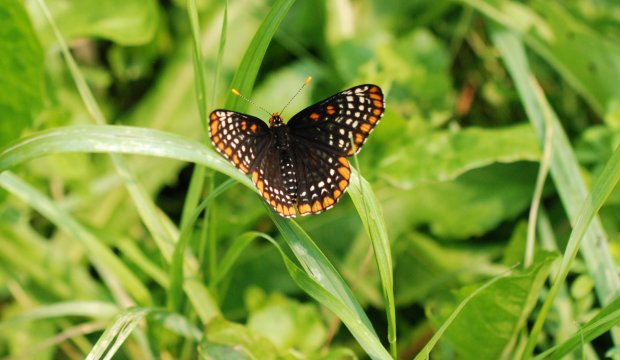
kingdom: Animalia
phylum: Arthropoda
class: Insecta
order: Lepidoptera
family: Nymphalidae
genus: Euphydryas
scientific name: Euphydryas phaeton
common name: Baltimore Checkerspot
